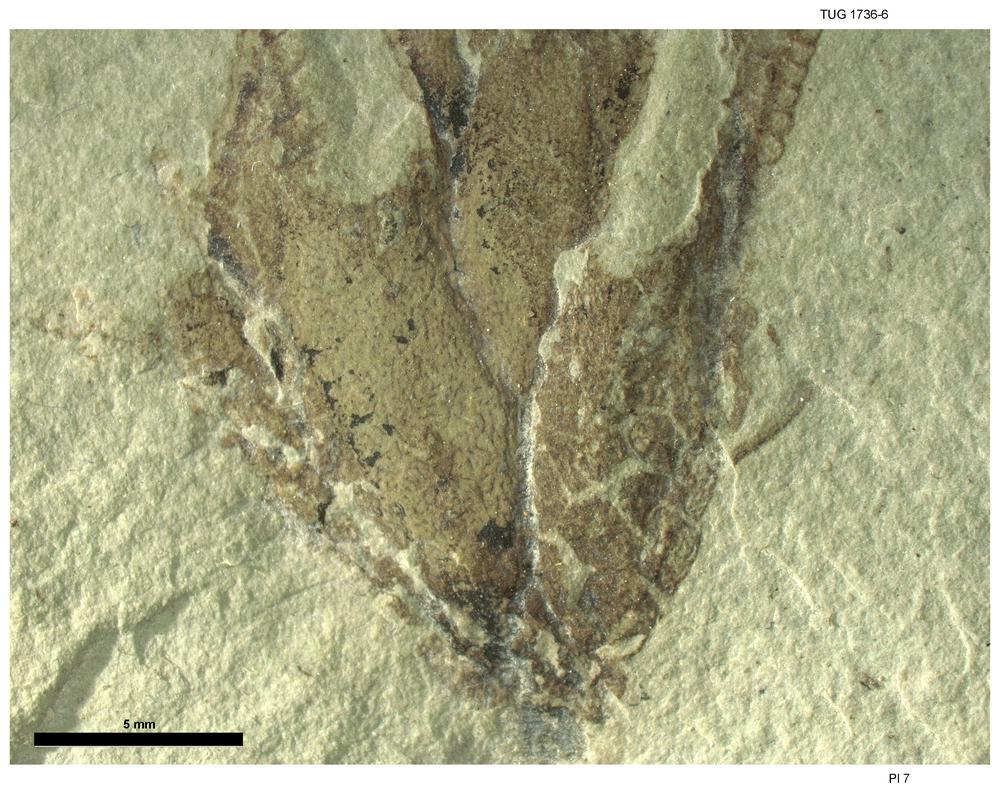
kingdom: Animalia
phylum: Echinodermata
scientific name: Echinodermata
